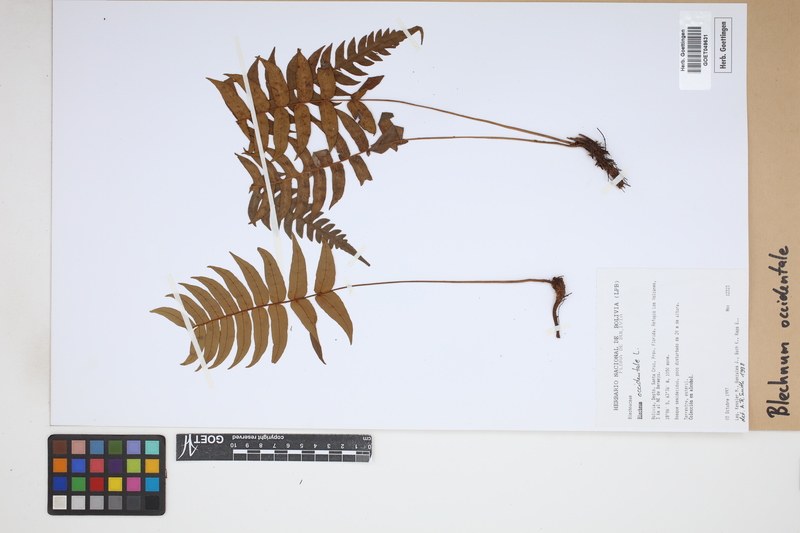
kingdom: Plantae
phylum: Tracheophyta
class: Polypodiopsida
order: Polypodiales
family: Blechnaceae
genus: Blechnum
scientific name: Blechnum occidentale
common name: Hammock fern
